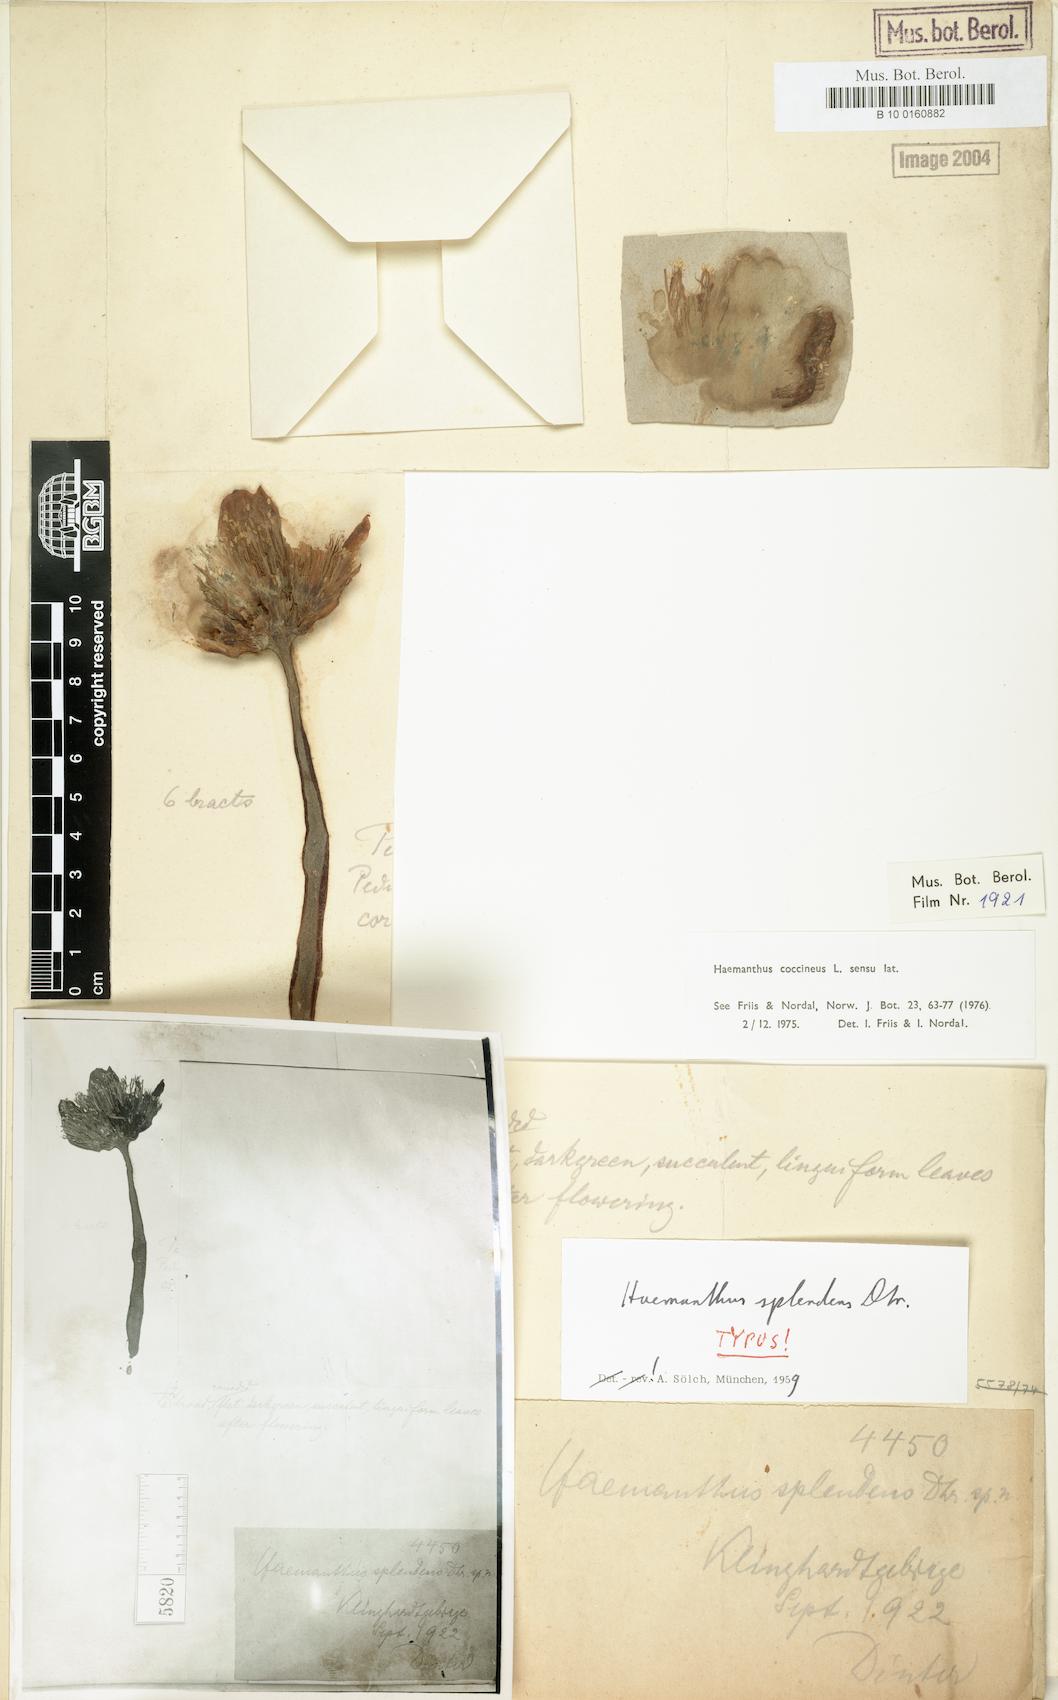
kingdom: Plantae
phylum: Tracheophyta
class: Liliopsida
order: Asparagales
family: Amaryllidaceae
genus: Haemanthus
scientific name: Haemanthus coccineus
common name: Cape-tulip
